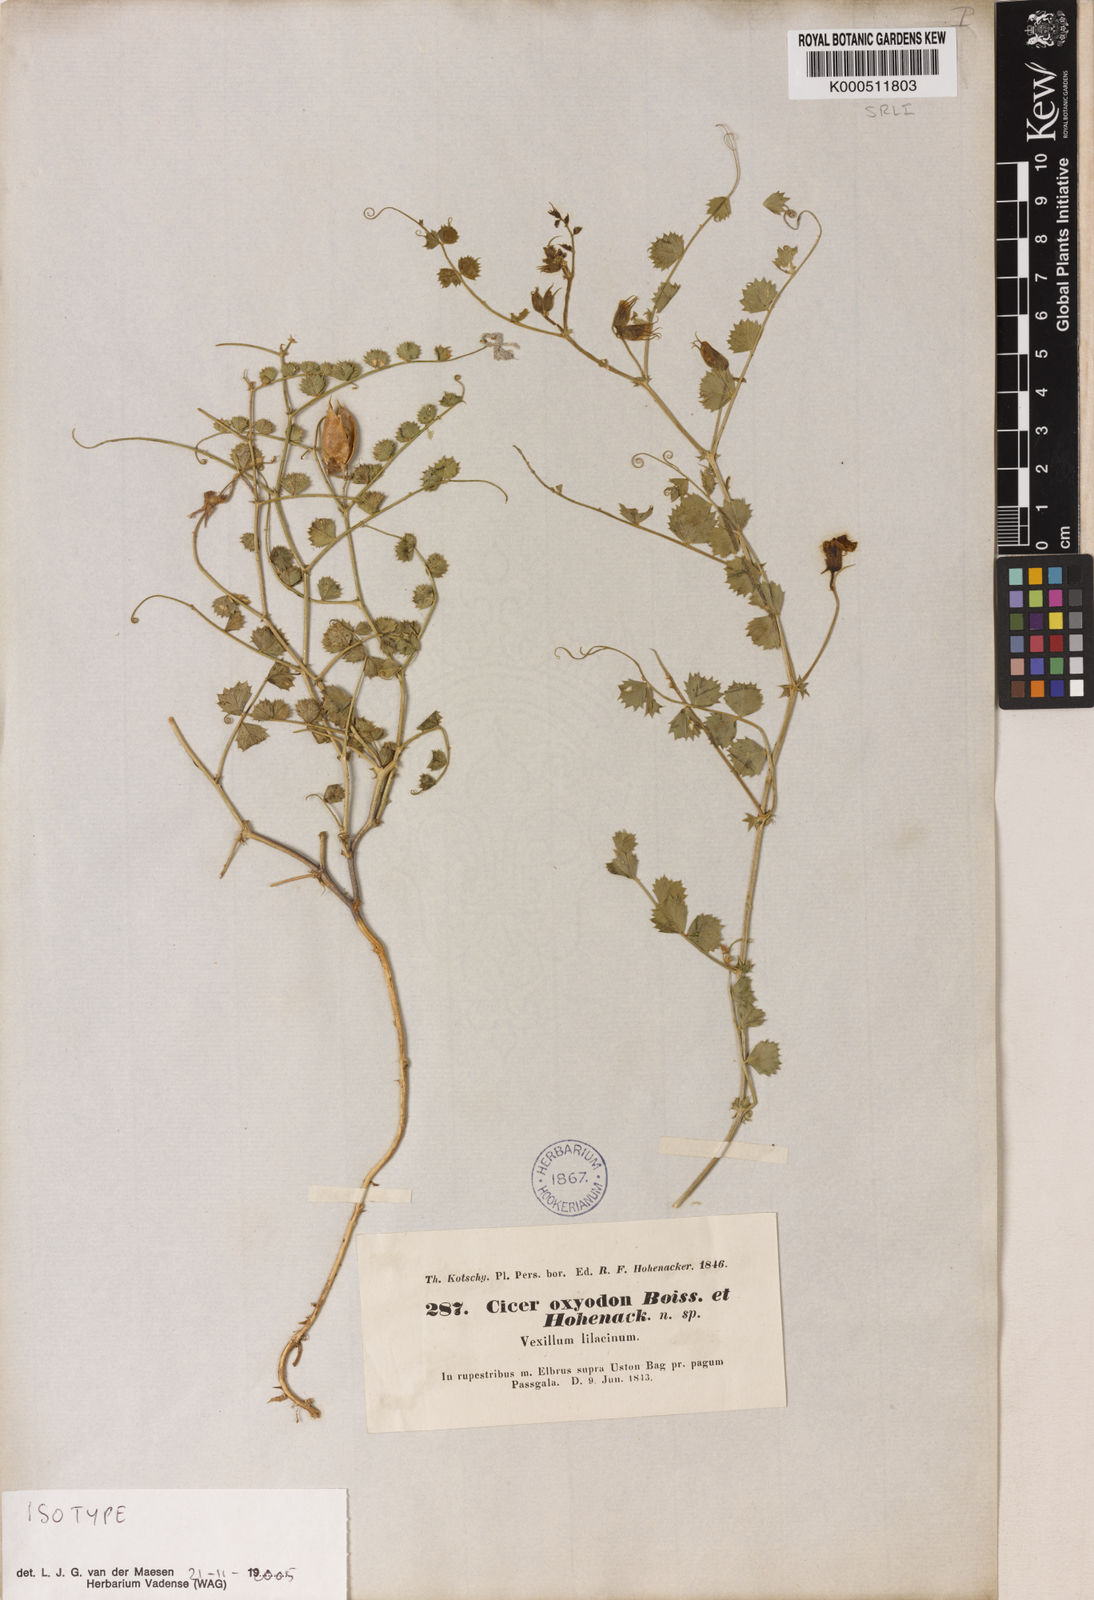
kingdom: Plantae
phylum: Tracheophyta
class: Magnoliopsida
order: Fabales
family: Fabaceae
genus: Cicer
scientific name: Cicer oxyodon
